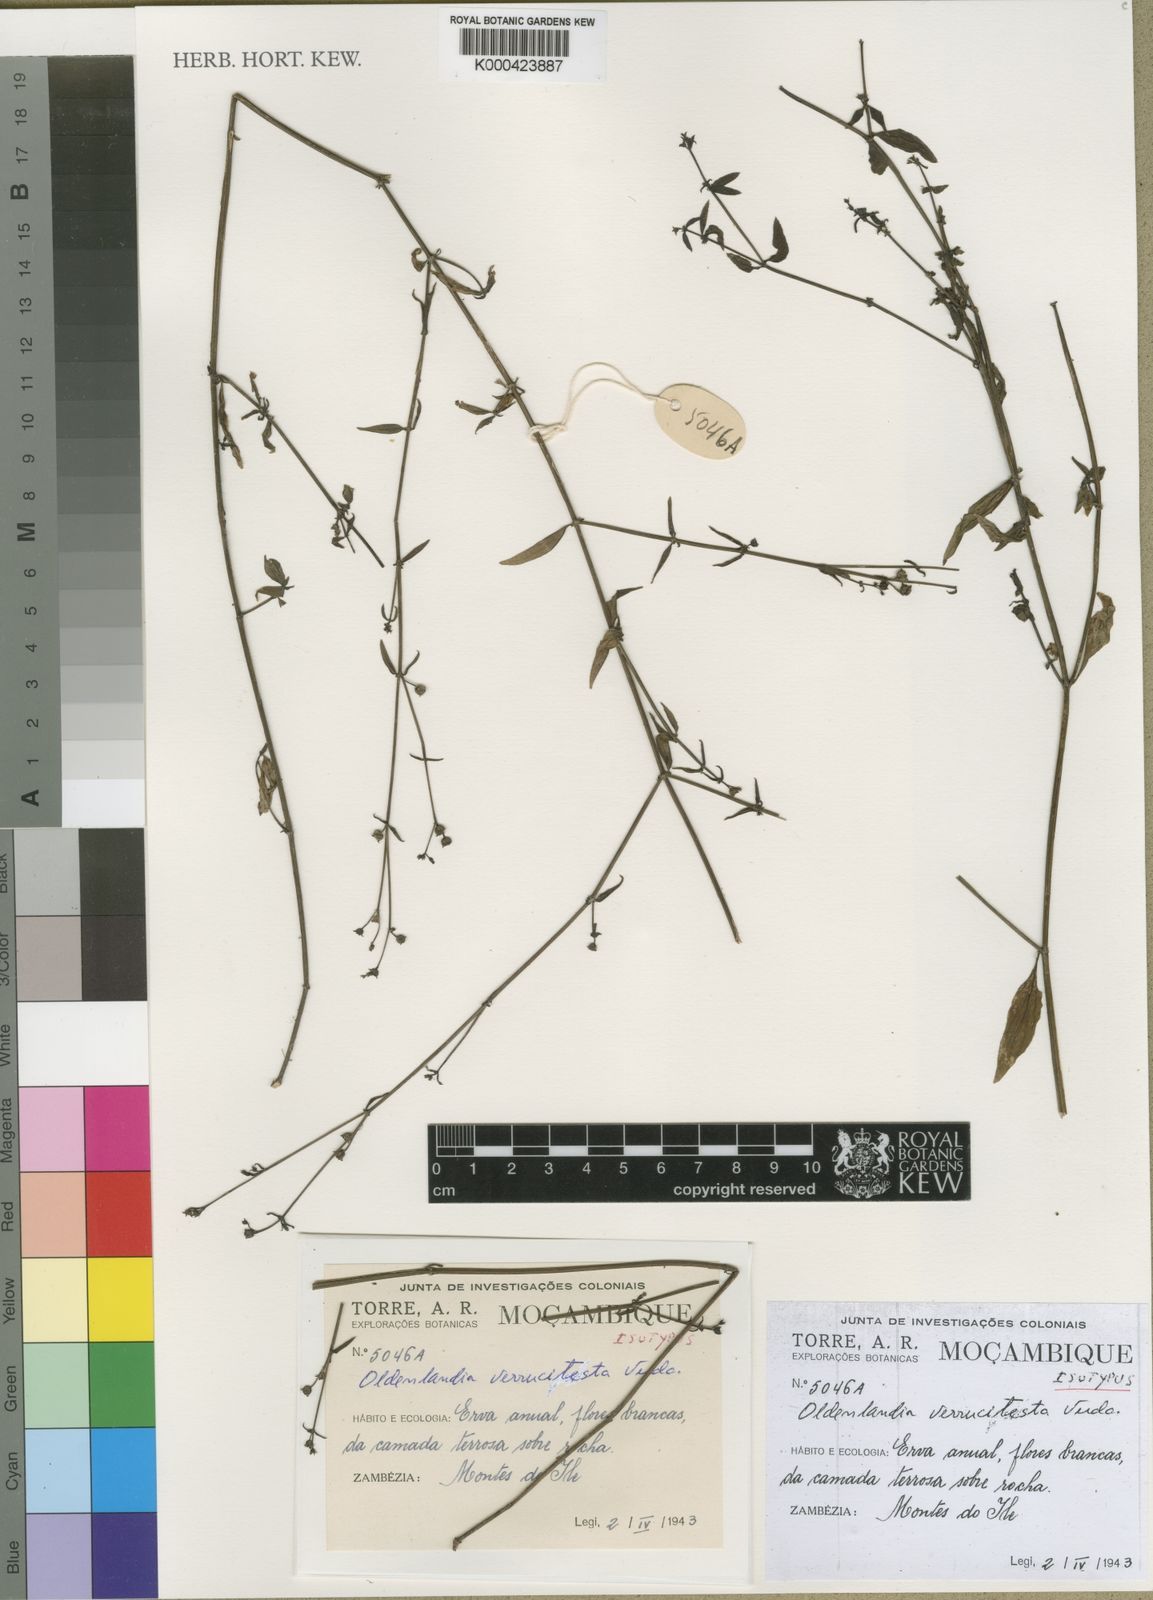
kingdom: Plantae
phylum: Tracheophyta
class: Magnoliopsida
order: Gentianales
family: Rubiaceae
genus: Oldenlandia
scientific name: Oldenlandia verrucitesta
